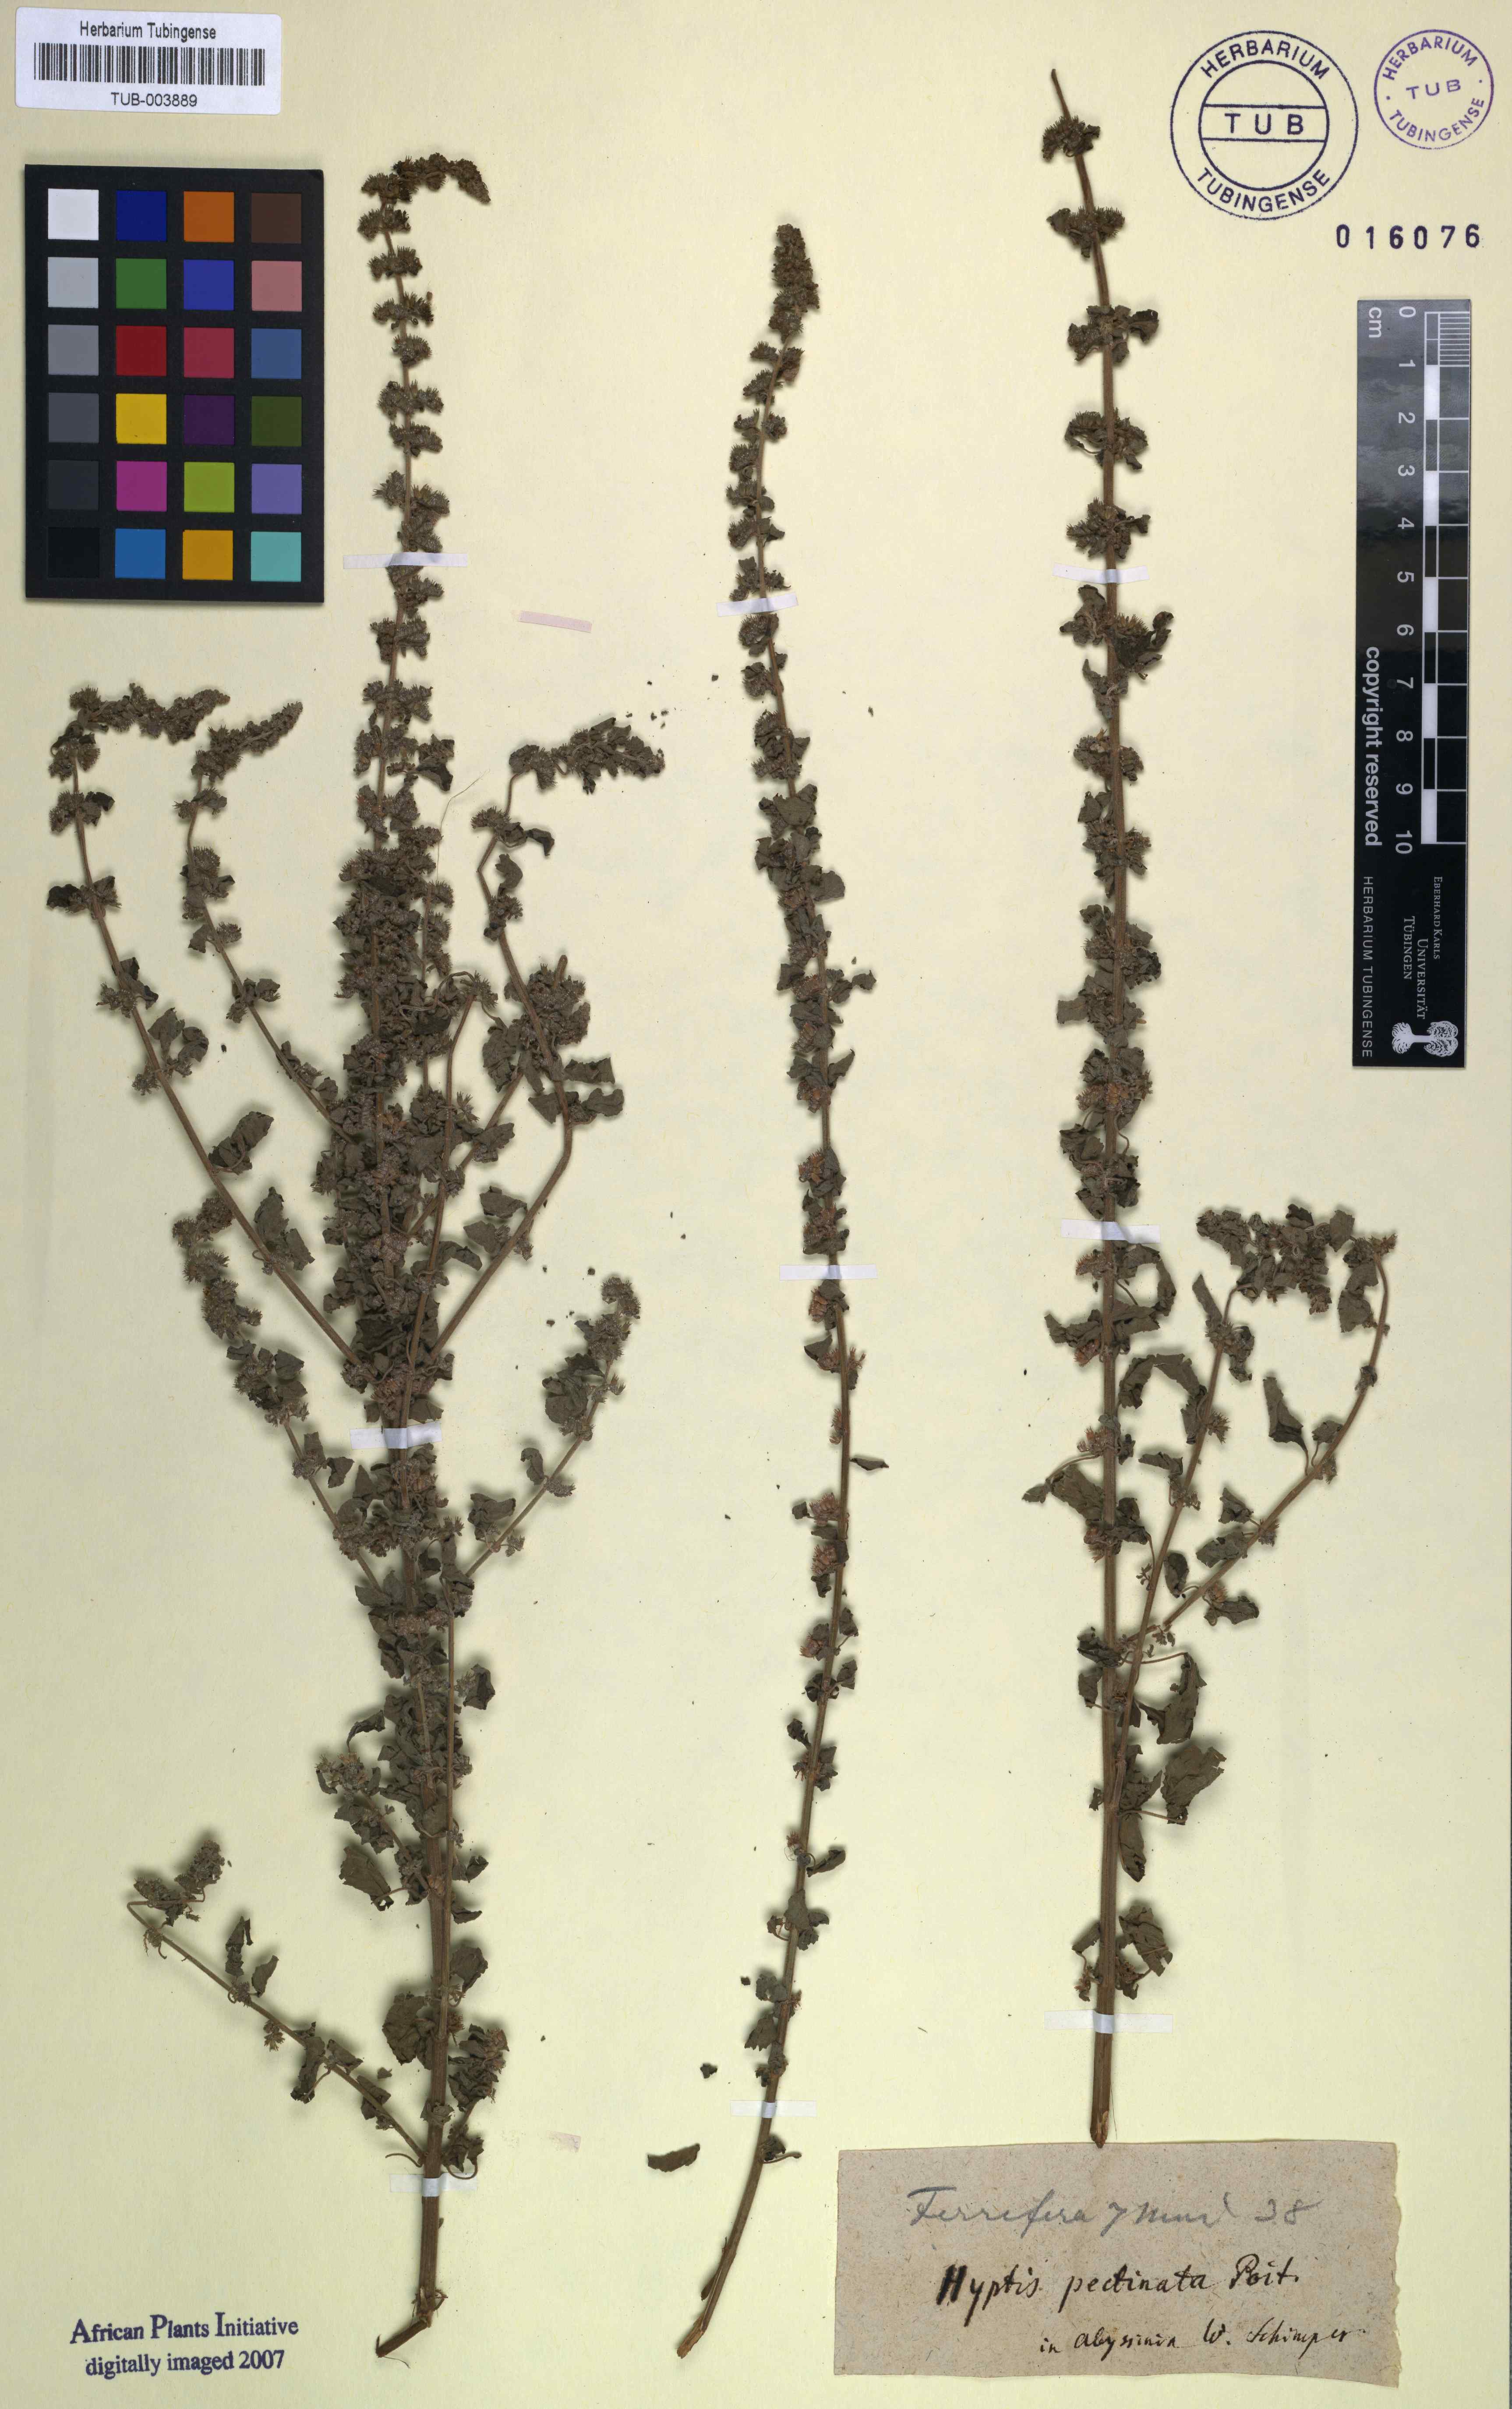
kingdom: Plantae
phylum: Tracheophyta
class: Magnoliopsida
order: Lamiales
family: Lamiaceae
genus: Mesosphaerum
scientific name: Mesosphaerum pectinatum
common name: Comb hyptis
